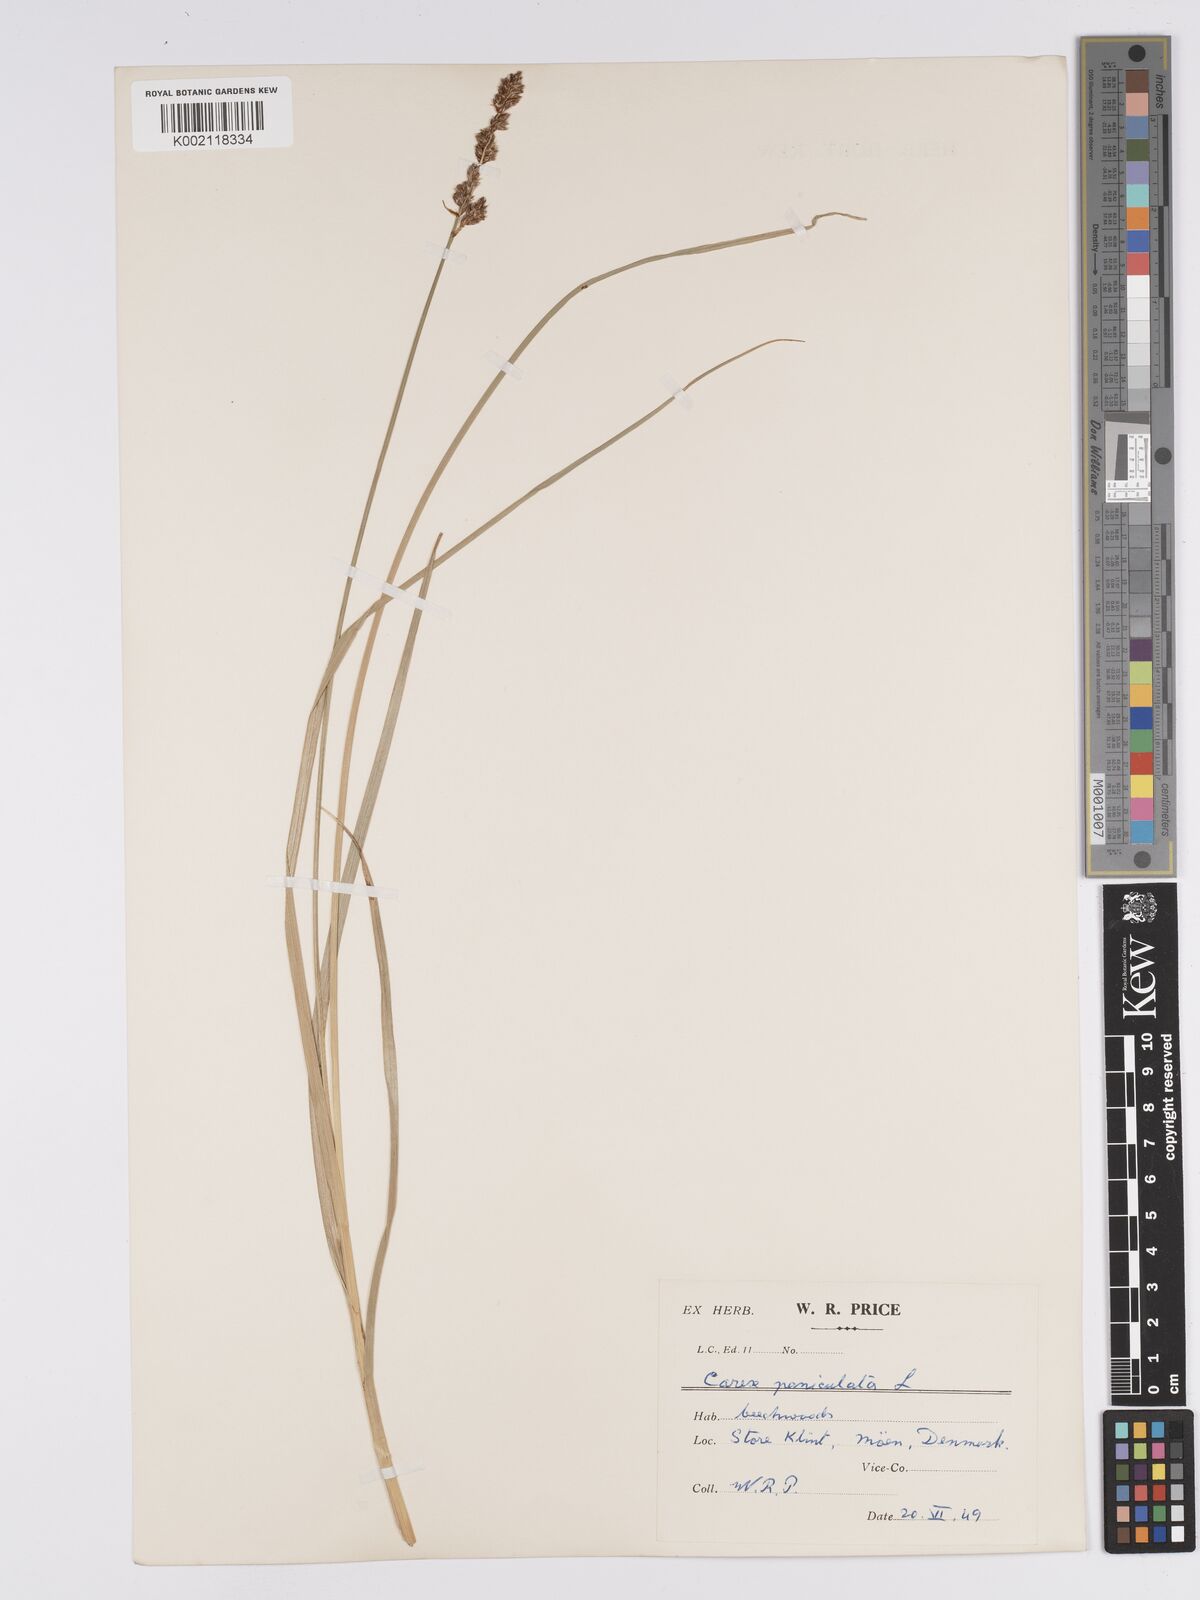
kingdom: Plantae
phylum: Tracheophyta
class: Liliopsida
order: Poales
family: Cyperaceae
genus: Carex
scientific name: Carex paniculata
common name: Greater tussock-sedge
